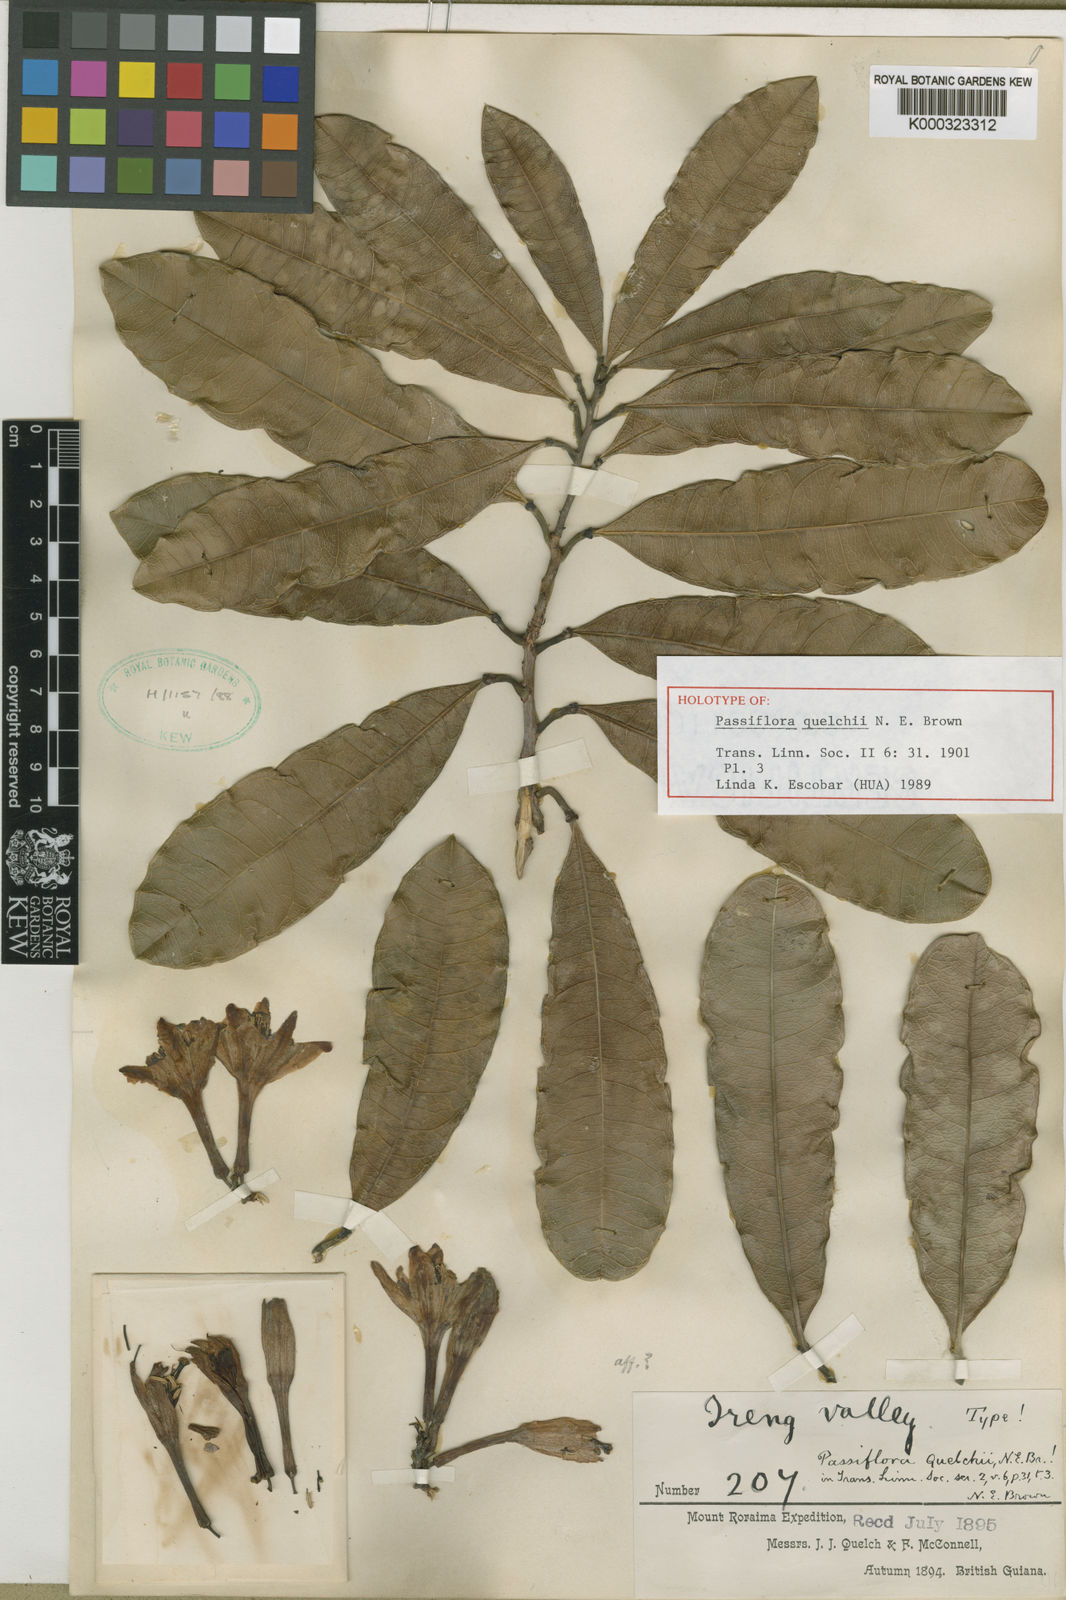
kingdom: Plantae
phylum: Tracheophyta
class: Magnoliopsida
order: Malpighiales
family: Passifloraceae
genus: Passiflora
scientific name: Passiflora quelchii
